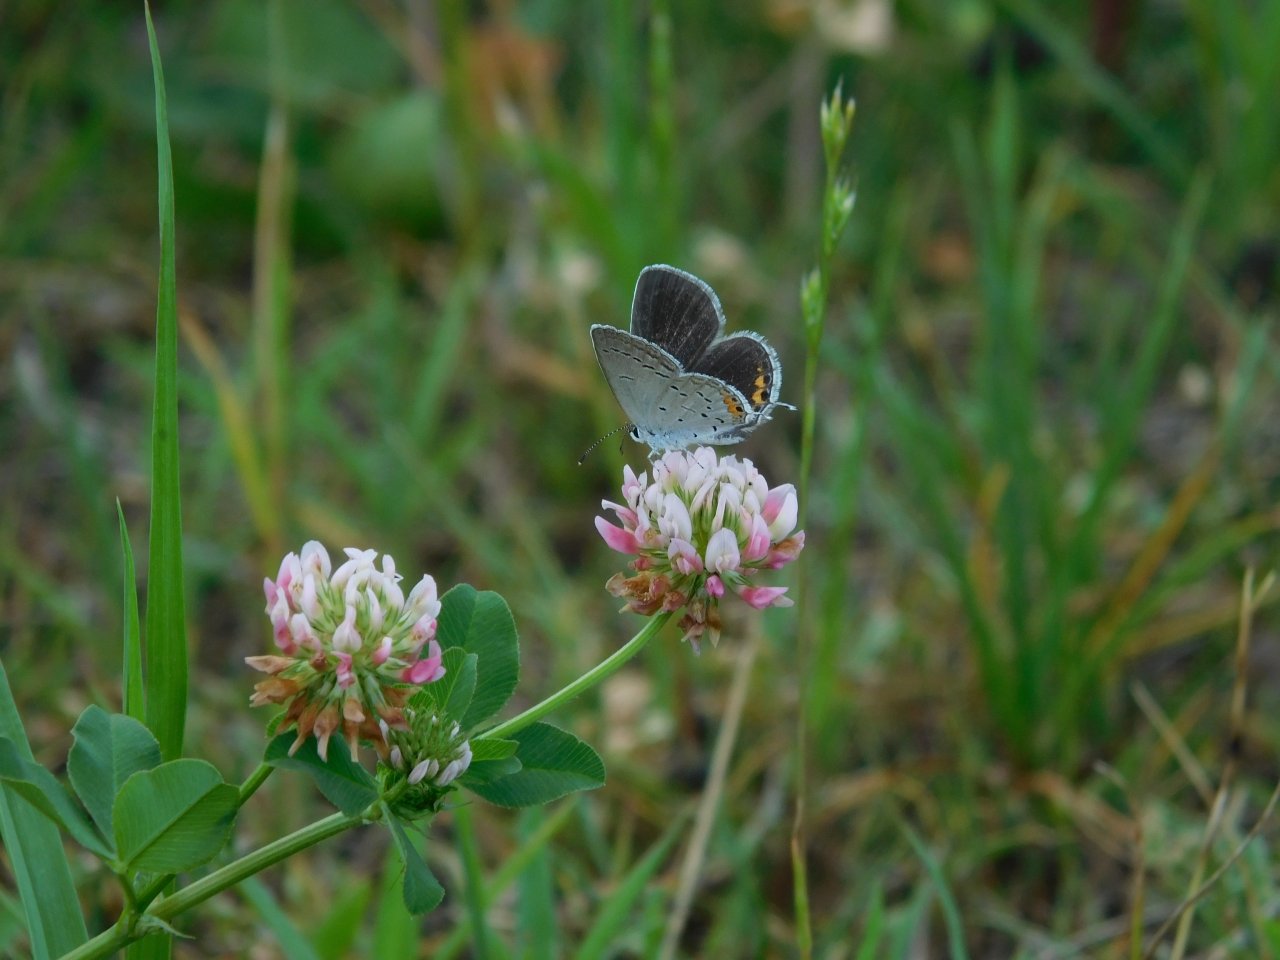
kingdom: Animalia
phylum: Arthropoda
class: Insecta
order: Lepidoptera
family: Lycaenidae
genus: Elkalyce
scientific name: Elkalyce comyntas
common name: Eastern Tailed-Blue
